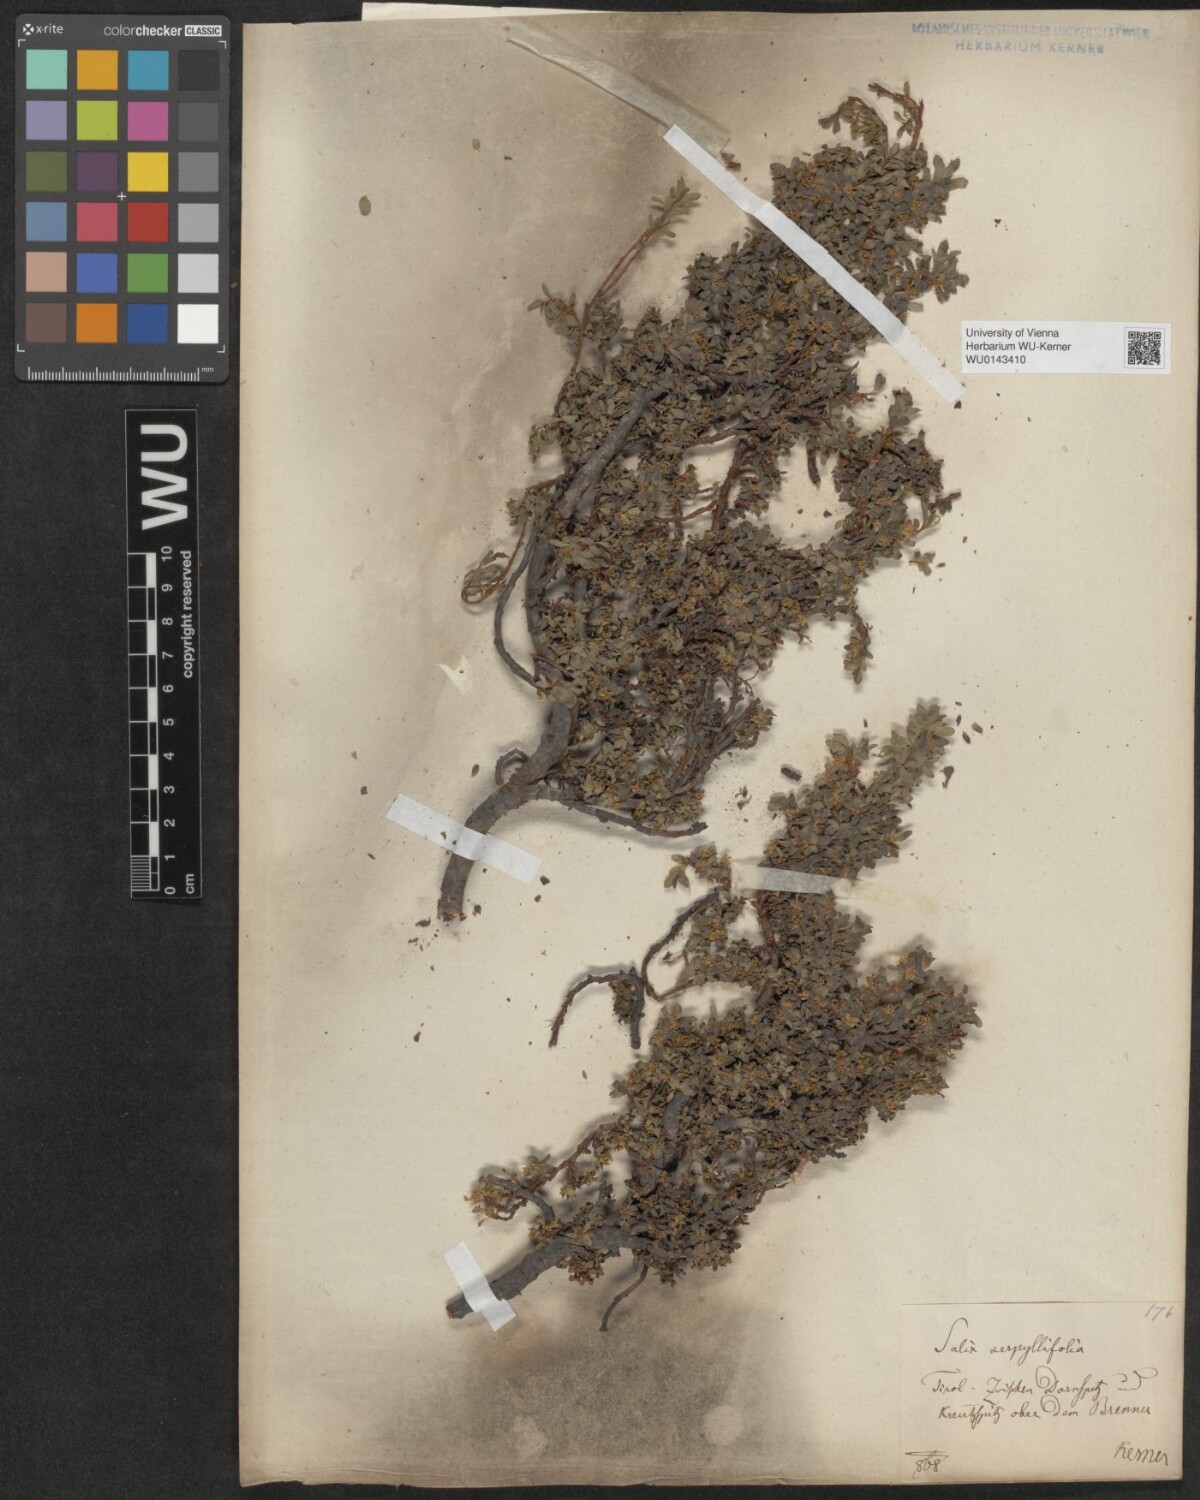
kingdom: Plantae
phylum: Tracheophyta
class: Magnoliopsida
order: Malpighiales
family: Salicaceae
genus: Salix
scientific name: Salix serpillifolia
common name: Thyme-leaf willow
